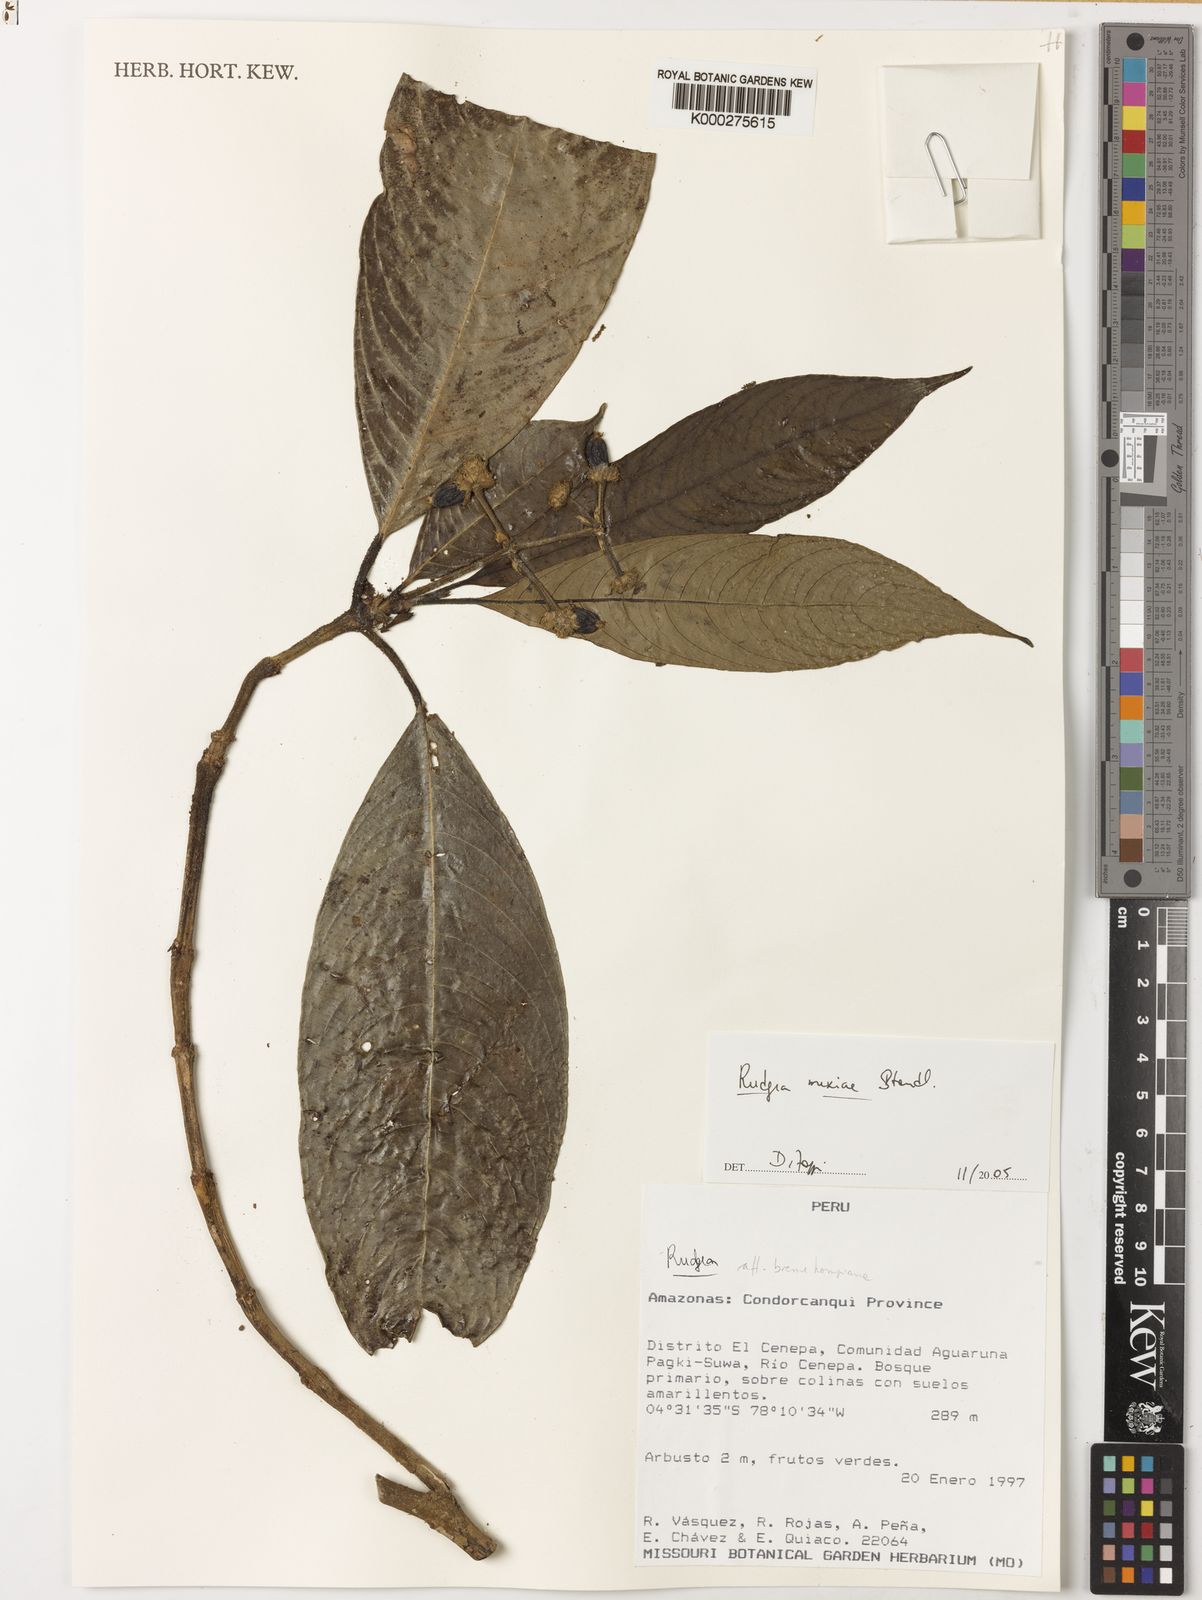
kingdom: Plantae
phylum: Tracheophyta
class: Magnoliopsida
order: Gentianales
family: Rubiaceae
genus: Palicourea
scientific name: Palicourea yneziae
